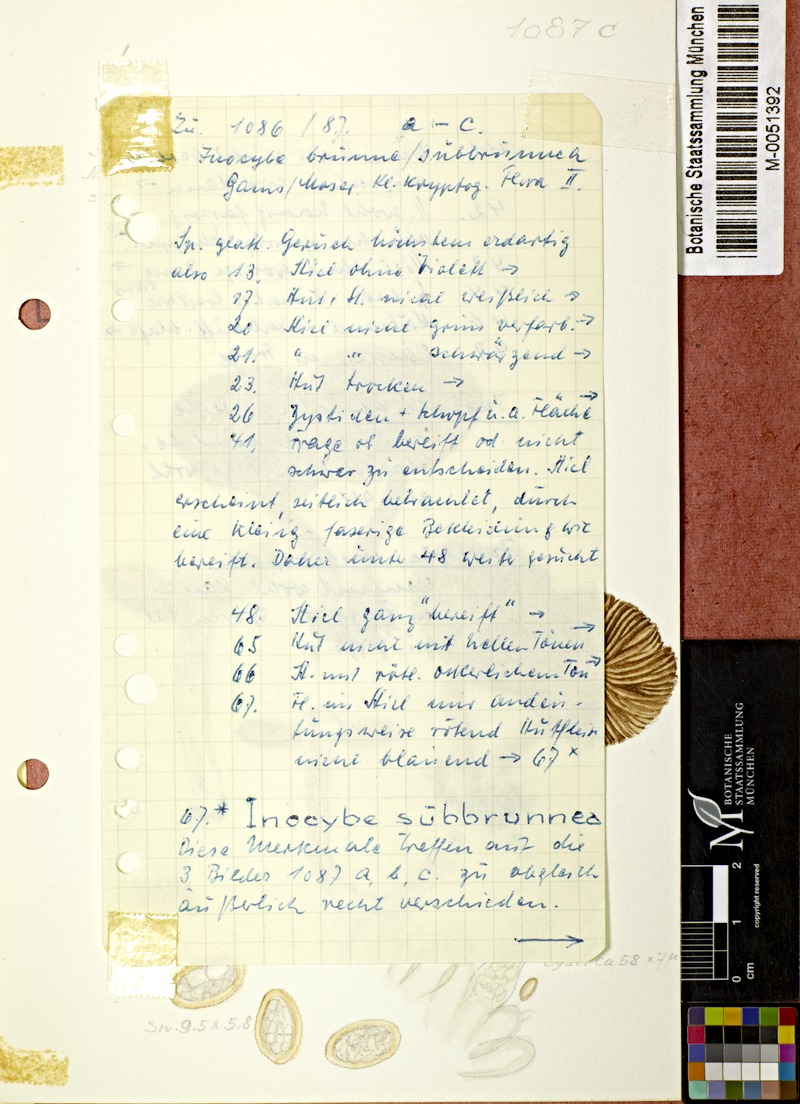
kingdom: Fungi
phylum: Basidiomycota
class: Agaricomycetes
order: Agaricales
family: Inocybaceae
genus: Inocybe
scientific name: Inocybe catalaunica
